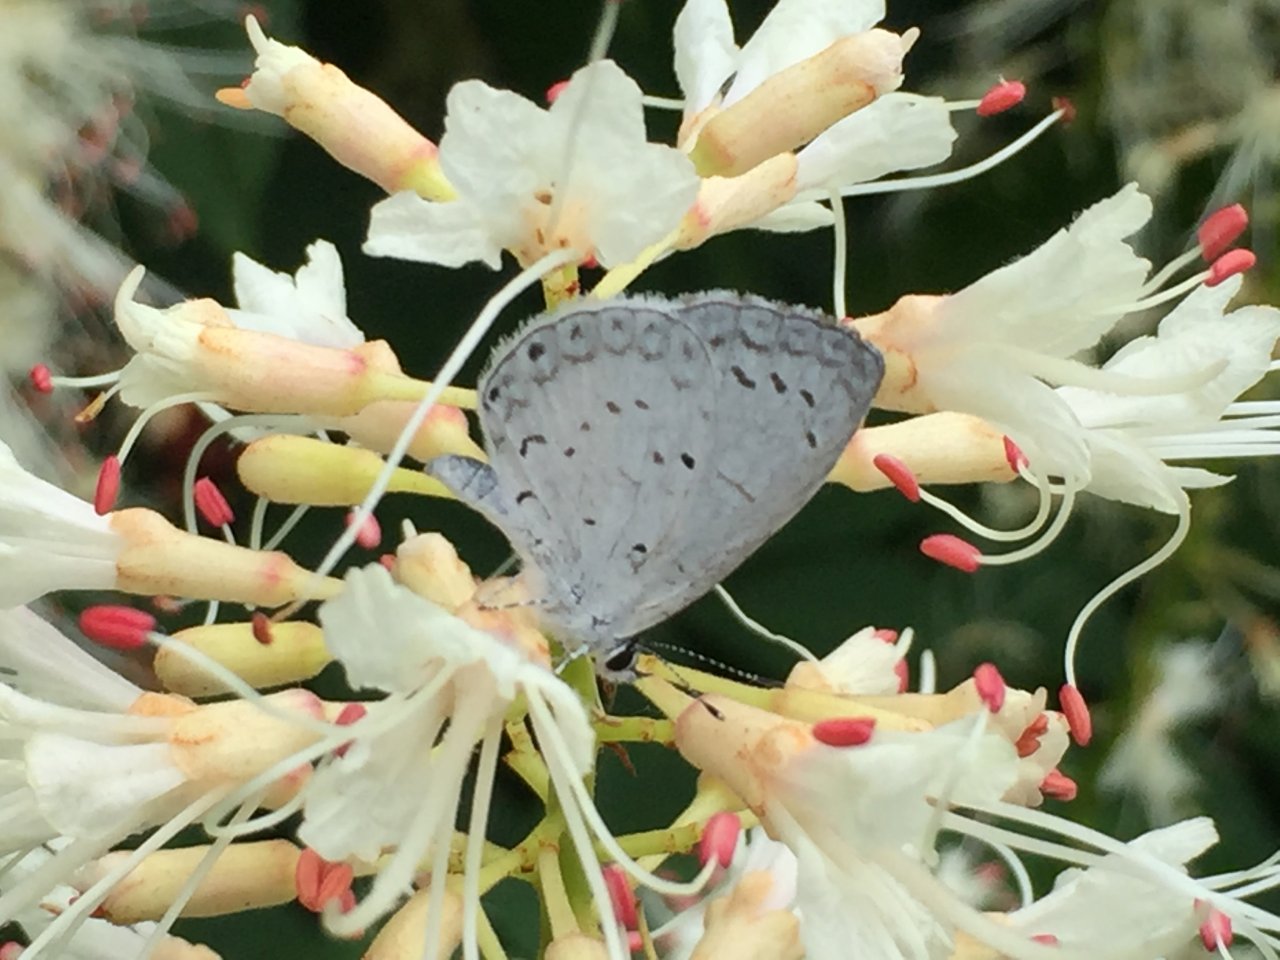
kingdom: Animalia
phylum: Arthropoda
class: Insecta
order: Lepidoptera
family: Lycaenidae
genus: Cyaniris
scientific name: Cyaniris neglecta
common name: Summer Azure
